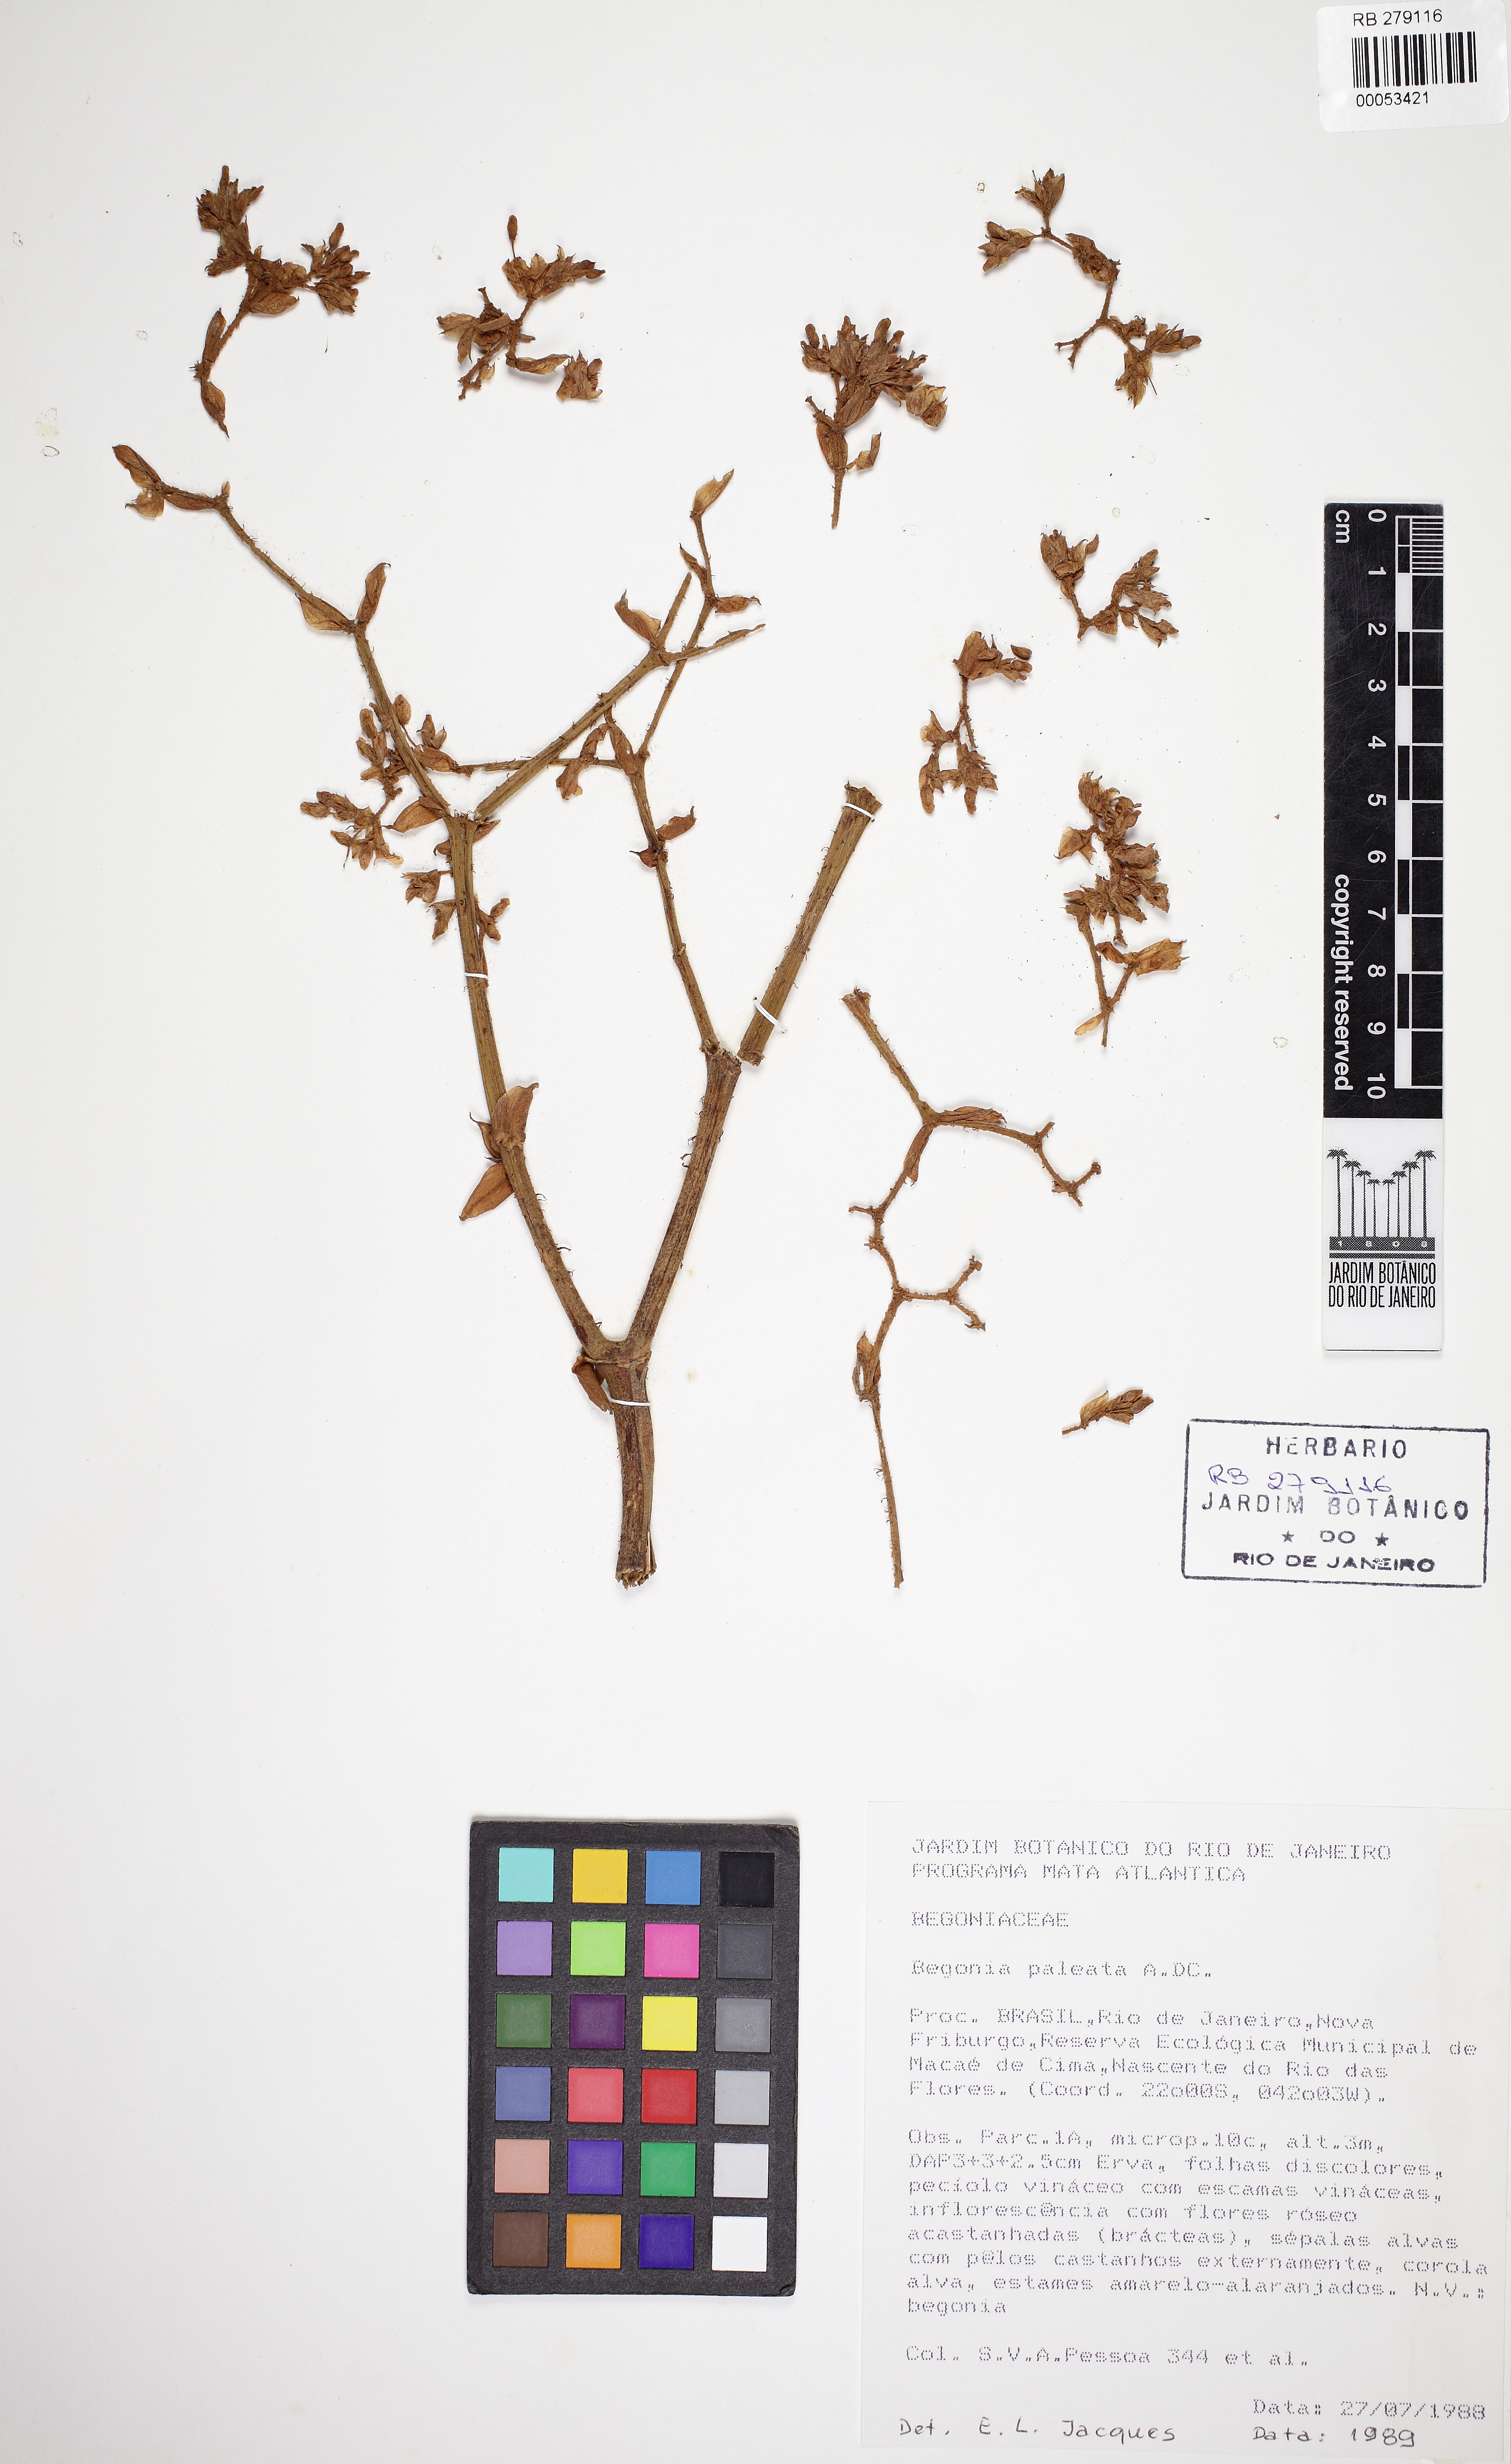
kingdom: Plantae
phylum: Tracheophyta
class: Magnoliopsida
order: Cucurbitales
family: Begoniaceae
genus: Begonia
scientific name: Begonia paleata
